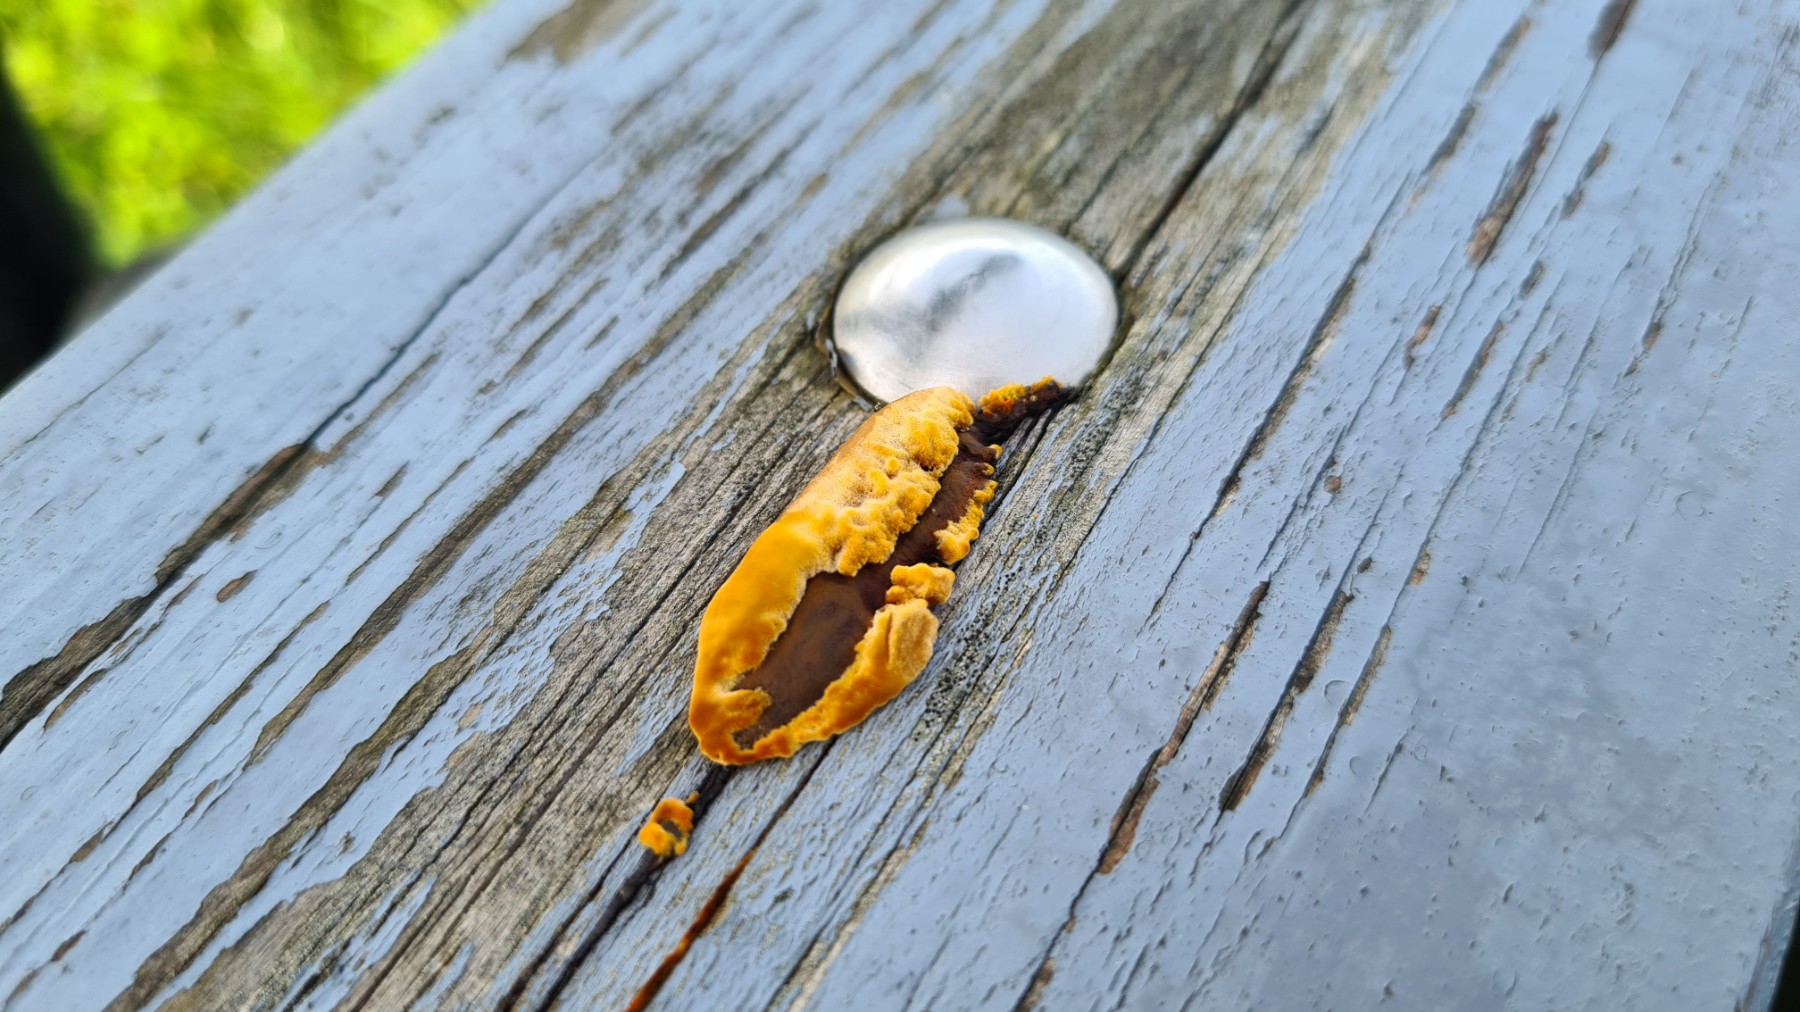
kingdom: Fungi
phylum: Basidiomycota
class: Agaricomycetes
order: Gloeophyllales
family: Gloeophyllaceae
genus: Gloeophyllum
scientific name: Gloeophyllum sepiarium
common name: fyrre-korkhat
